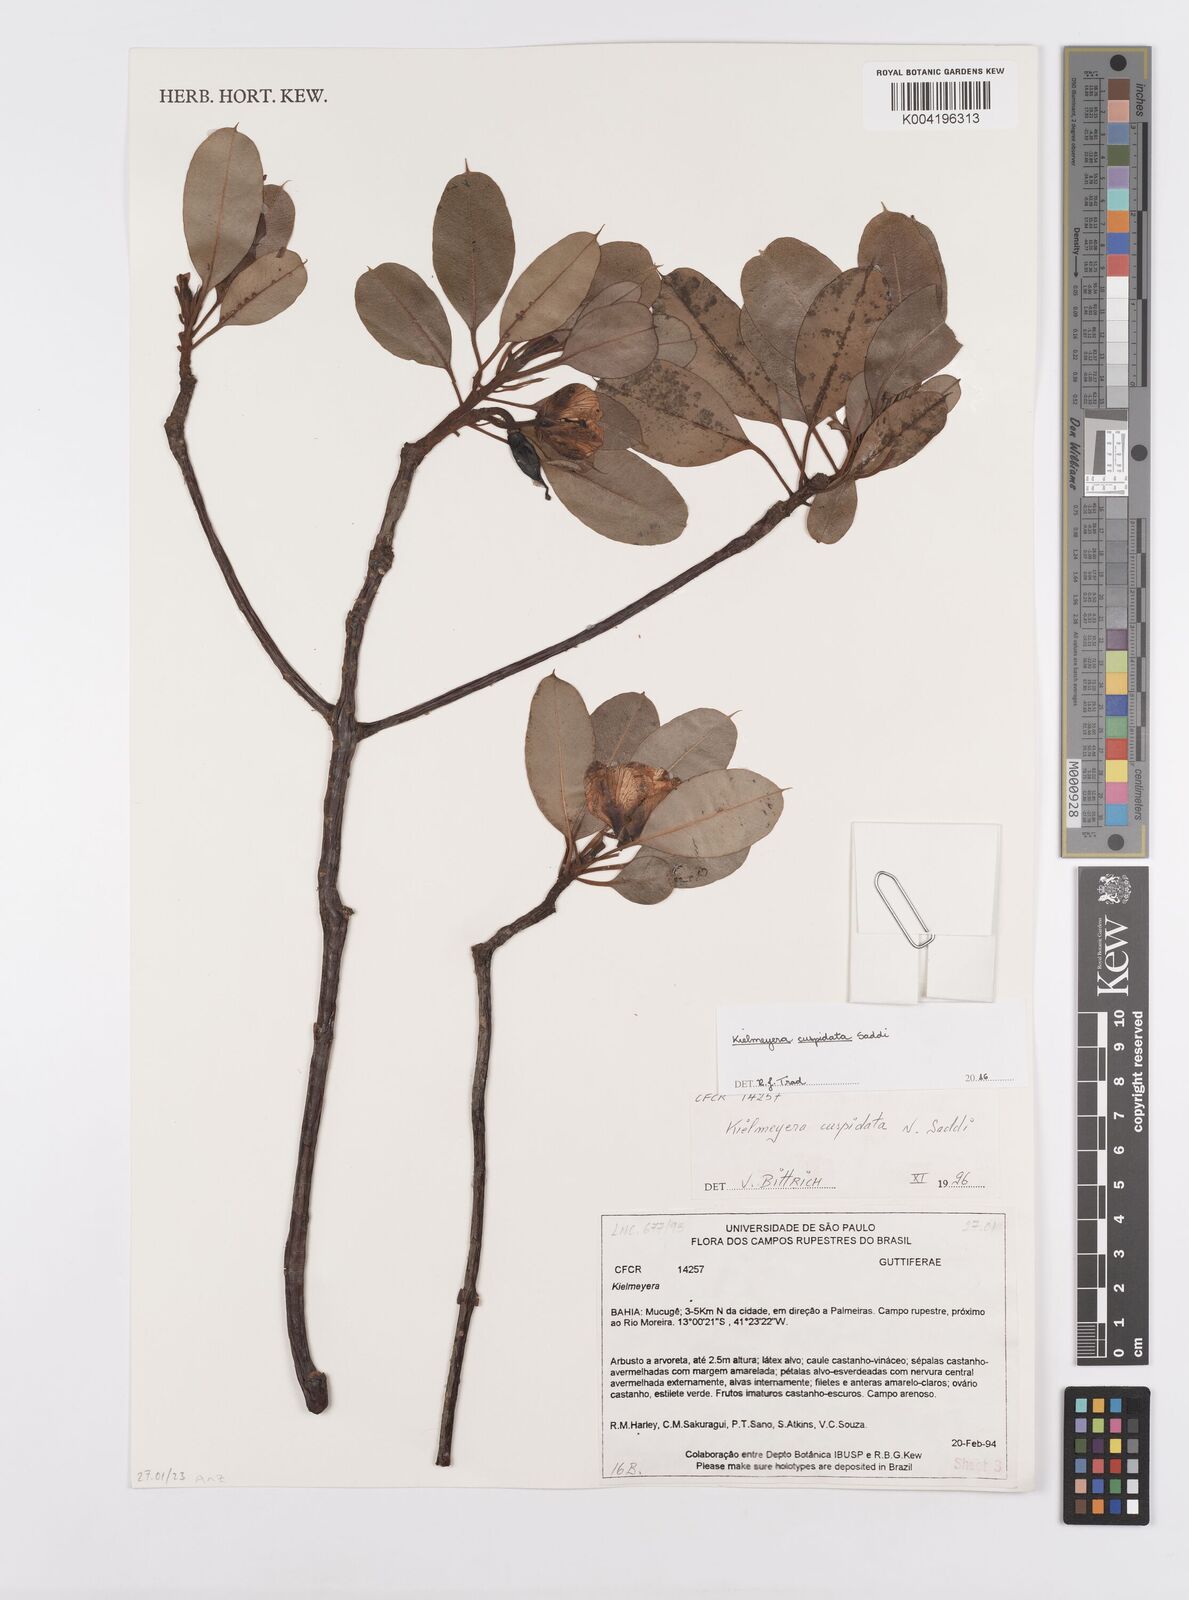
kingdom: Plantae
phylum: Tracheophyta
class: Magnoliopsida
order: Malpighiales
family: Calophyllaceae
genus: Kielmeyera
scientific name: Kielmeyera cuspidata
